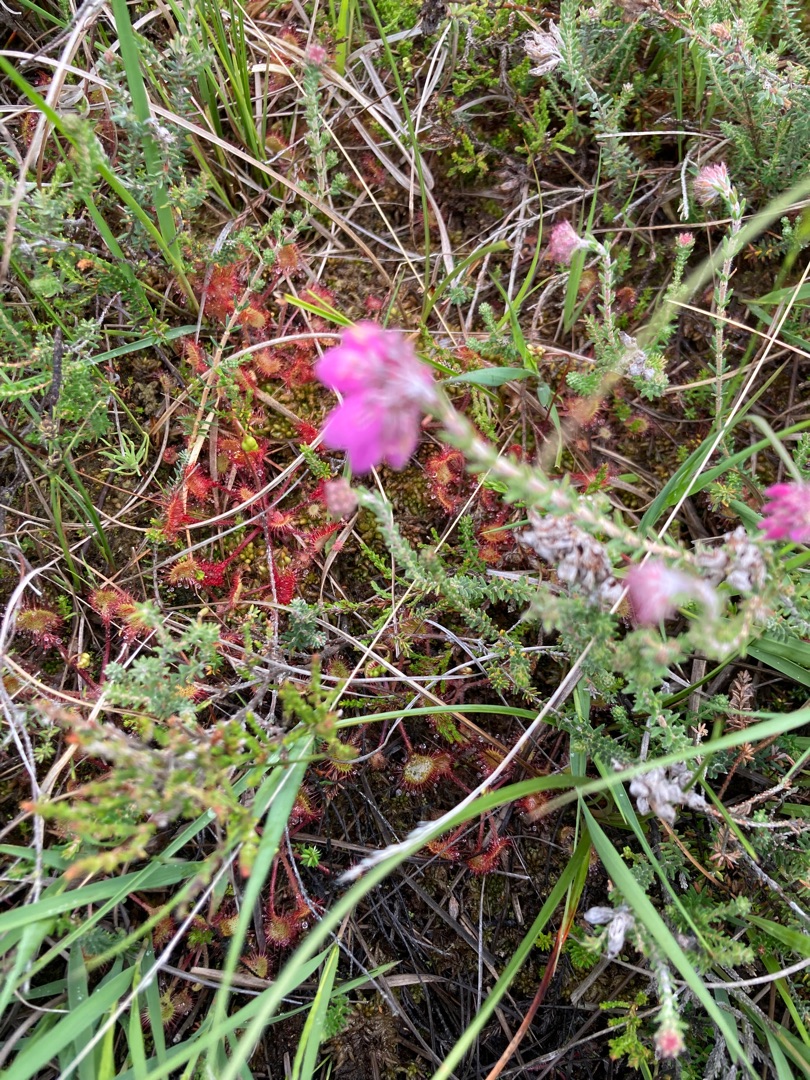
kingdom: Plantae
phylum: Tracheophyta
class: Magnoliopsida
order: Caryophyllales
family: Droseraceae
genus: Drosera
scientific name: Drosera rotundifolia
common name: Rundbladet soldug
